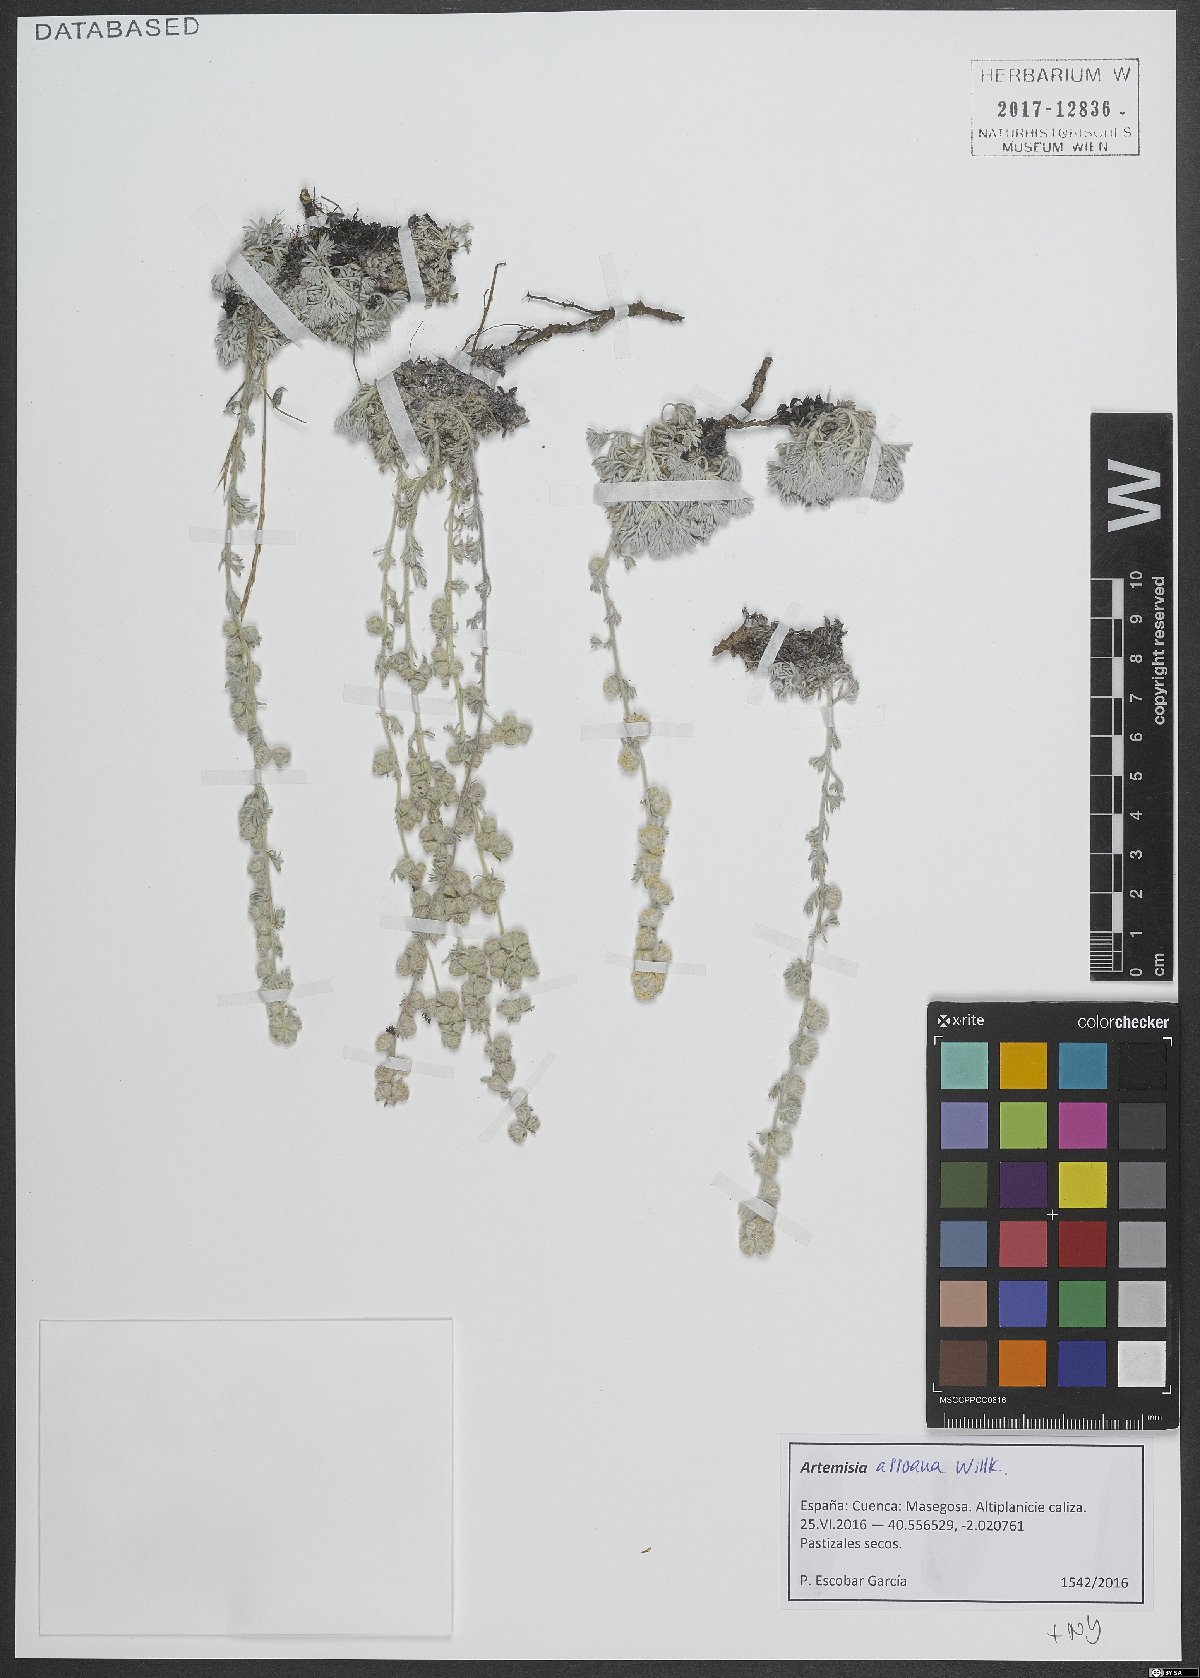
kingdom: Plantae
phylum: Tracheophyta
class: Magnoliopsida
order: Asterales
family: Asteraceae
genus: Artemisia
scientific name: Artemisia assoana
